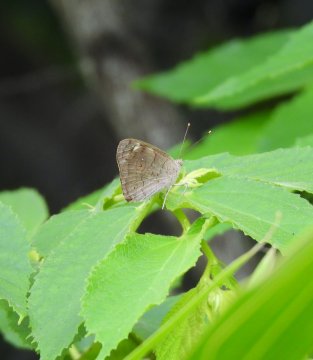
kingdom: Animalia
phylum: Arthropoda
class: Insecta
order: Lepidoptera
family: Nymphalidae
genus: Eunica
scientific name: Eunica monima
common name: Dingy Purplewing
